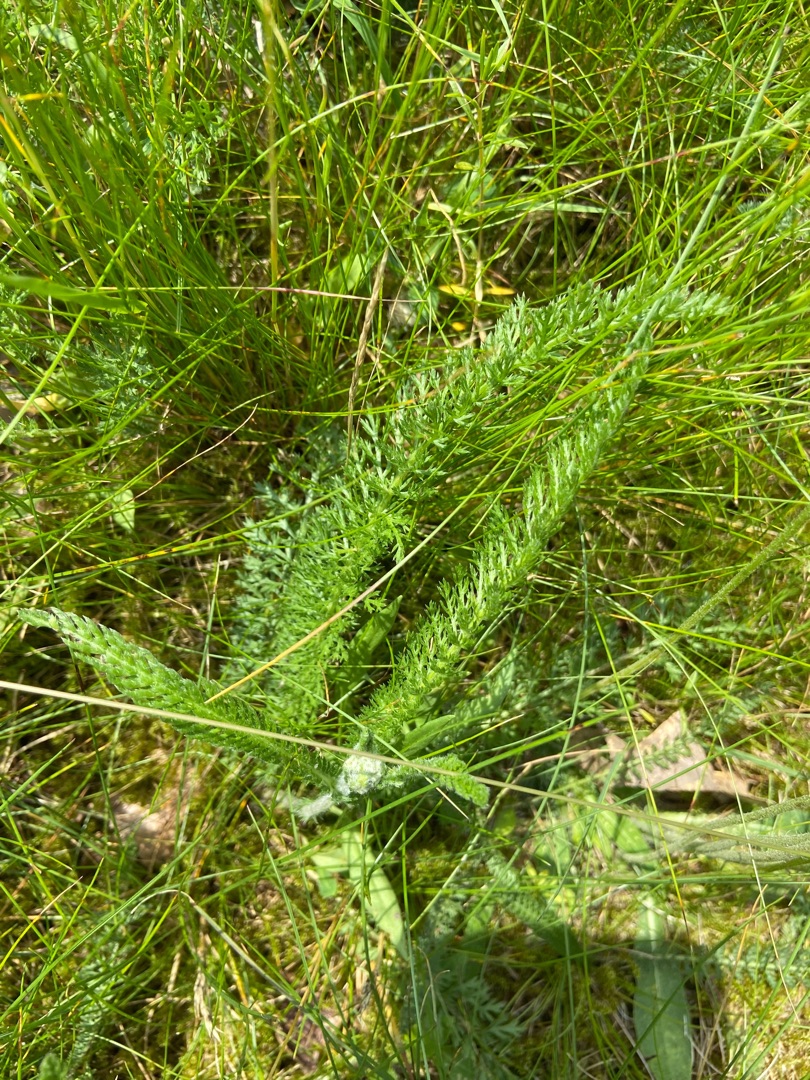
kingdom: Plantae
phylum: Tracheophyta
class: Magnoliopsida
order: Asterales
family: Asteraceae
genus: Achillea
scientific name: Achillea millefolium
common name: Almindelig røllike
